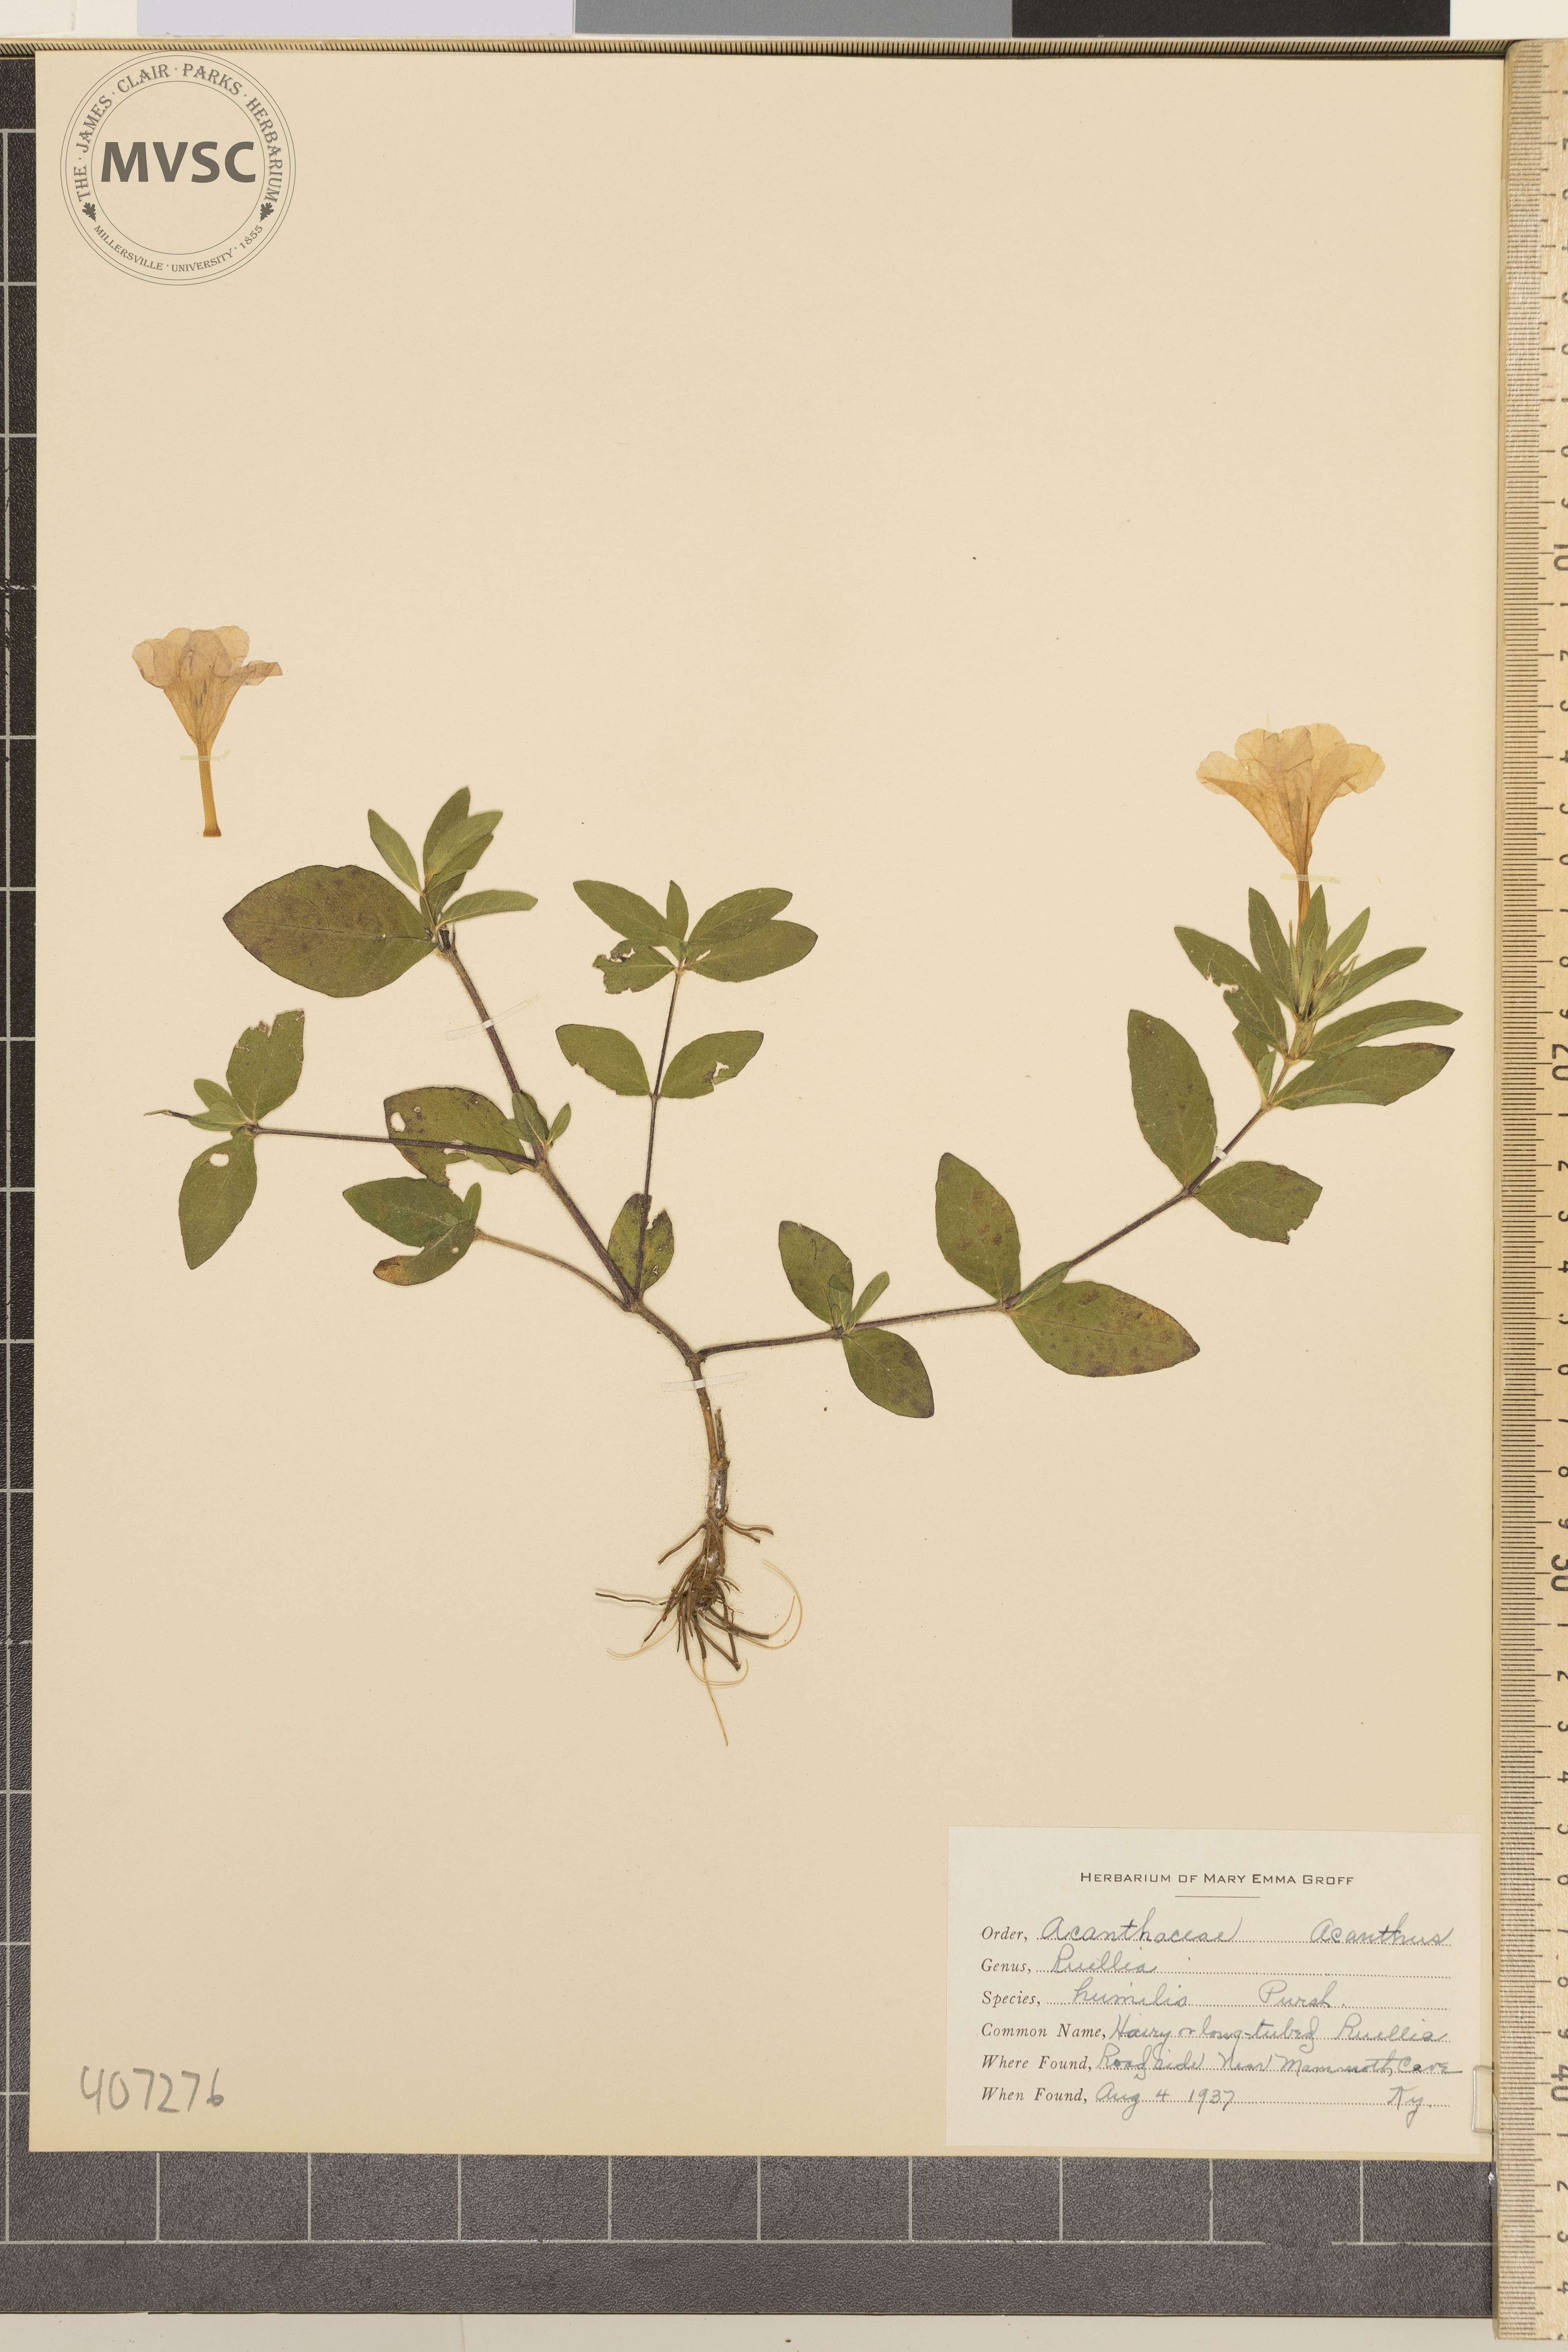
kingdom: Plantae
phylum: Tracheophyta
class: Magnoliopsida
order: Lamiales
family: Acanthaceae
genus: Ruellia
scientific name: Ruellia humilis
